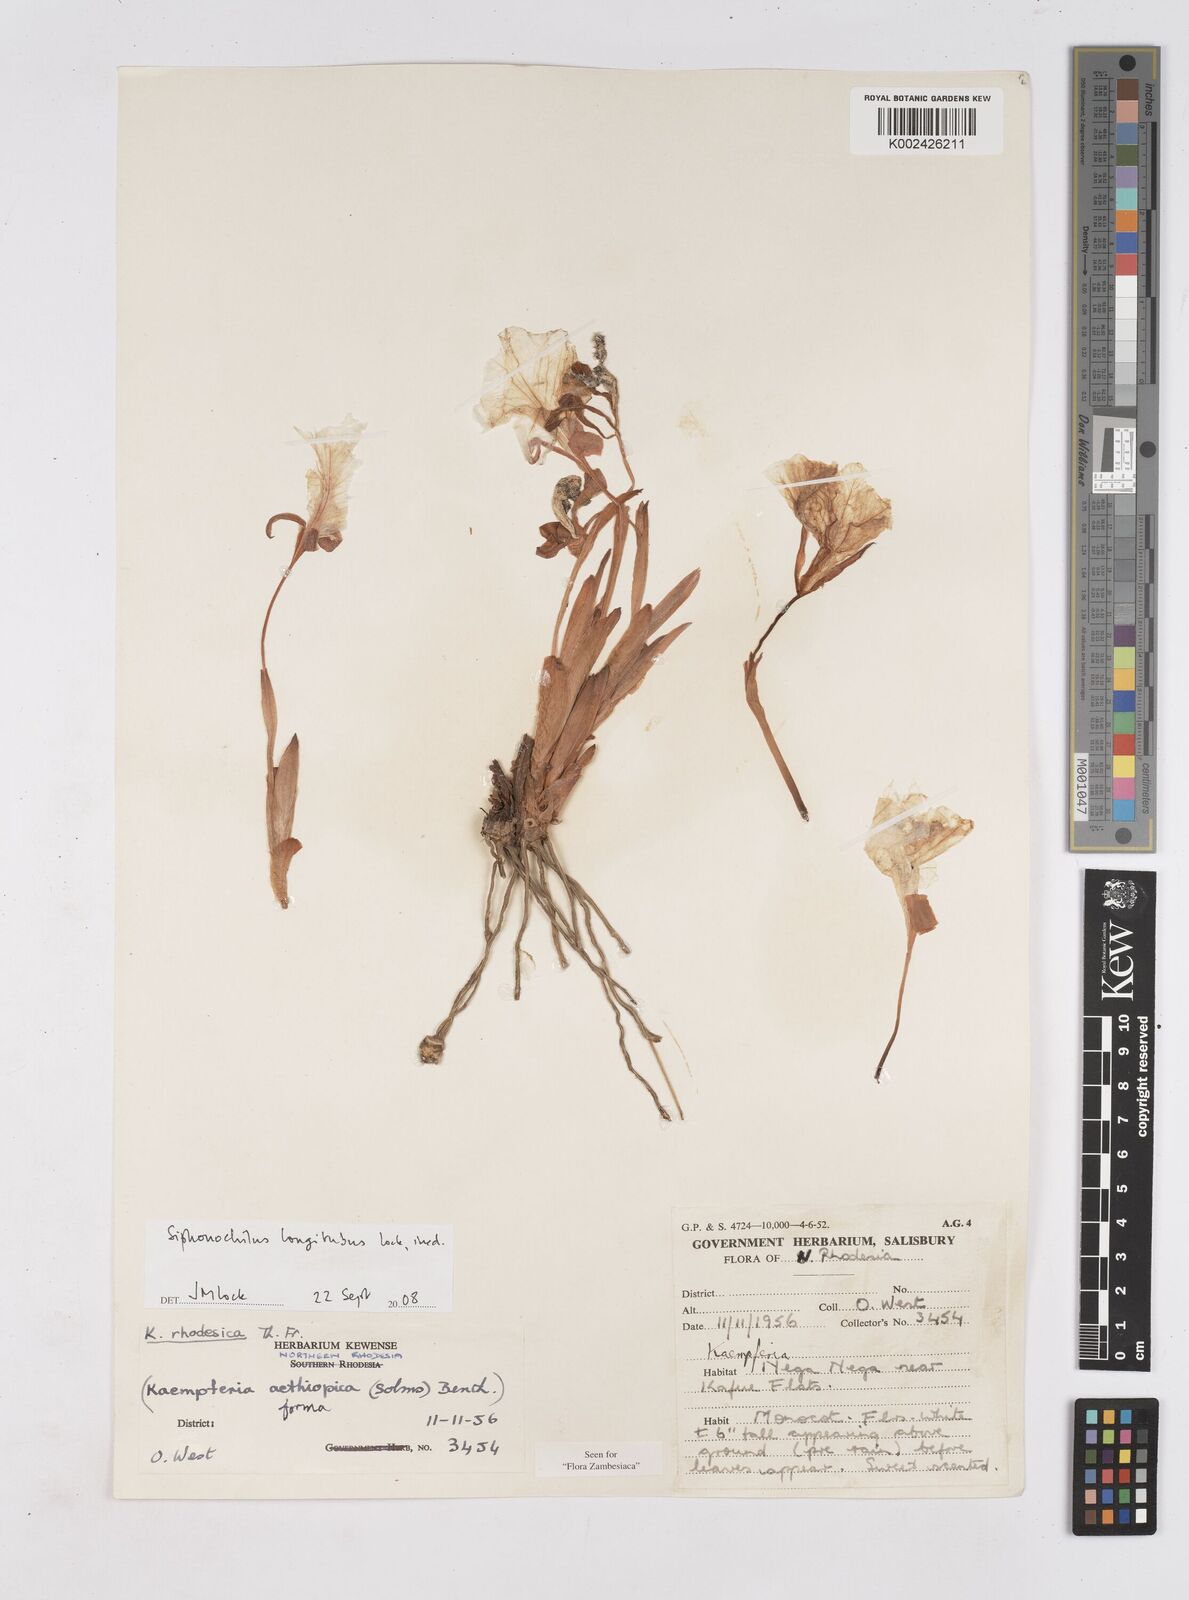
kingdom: Plantae
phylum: Tracheophyta
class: Liliopsida
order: Zingiberales
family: Zingiberaceae
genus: Siphonochilus
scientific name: Siphonochilus longitubus
